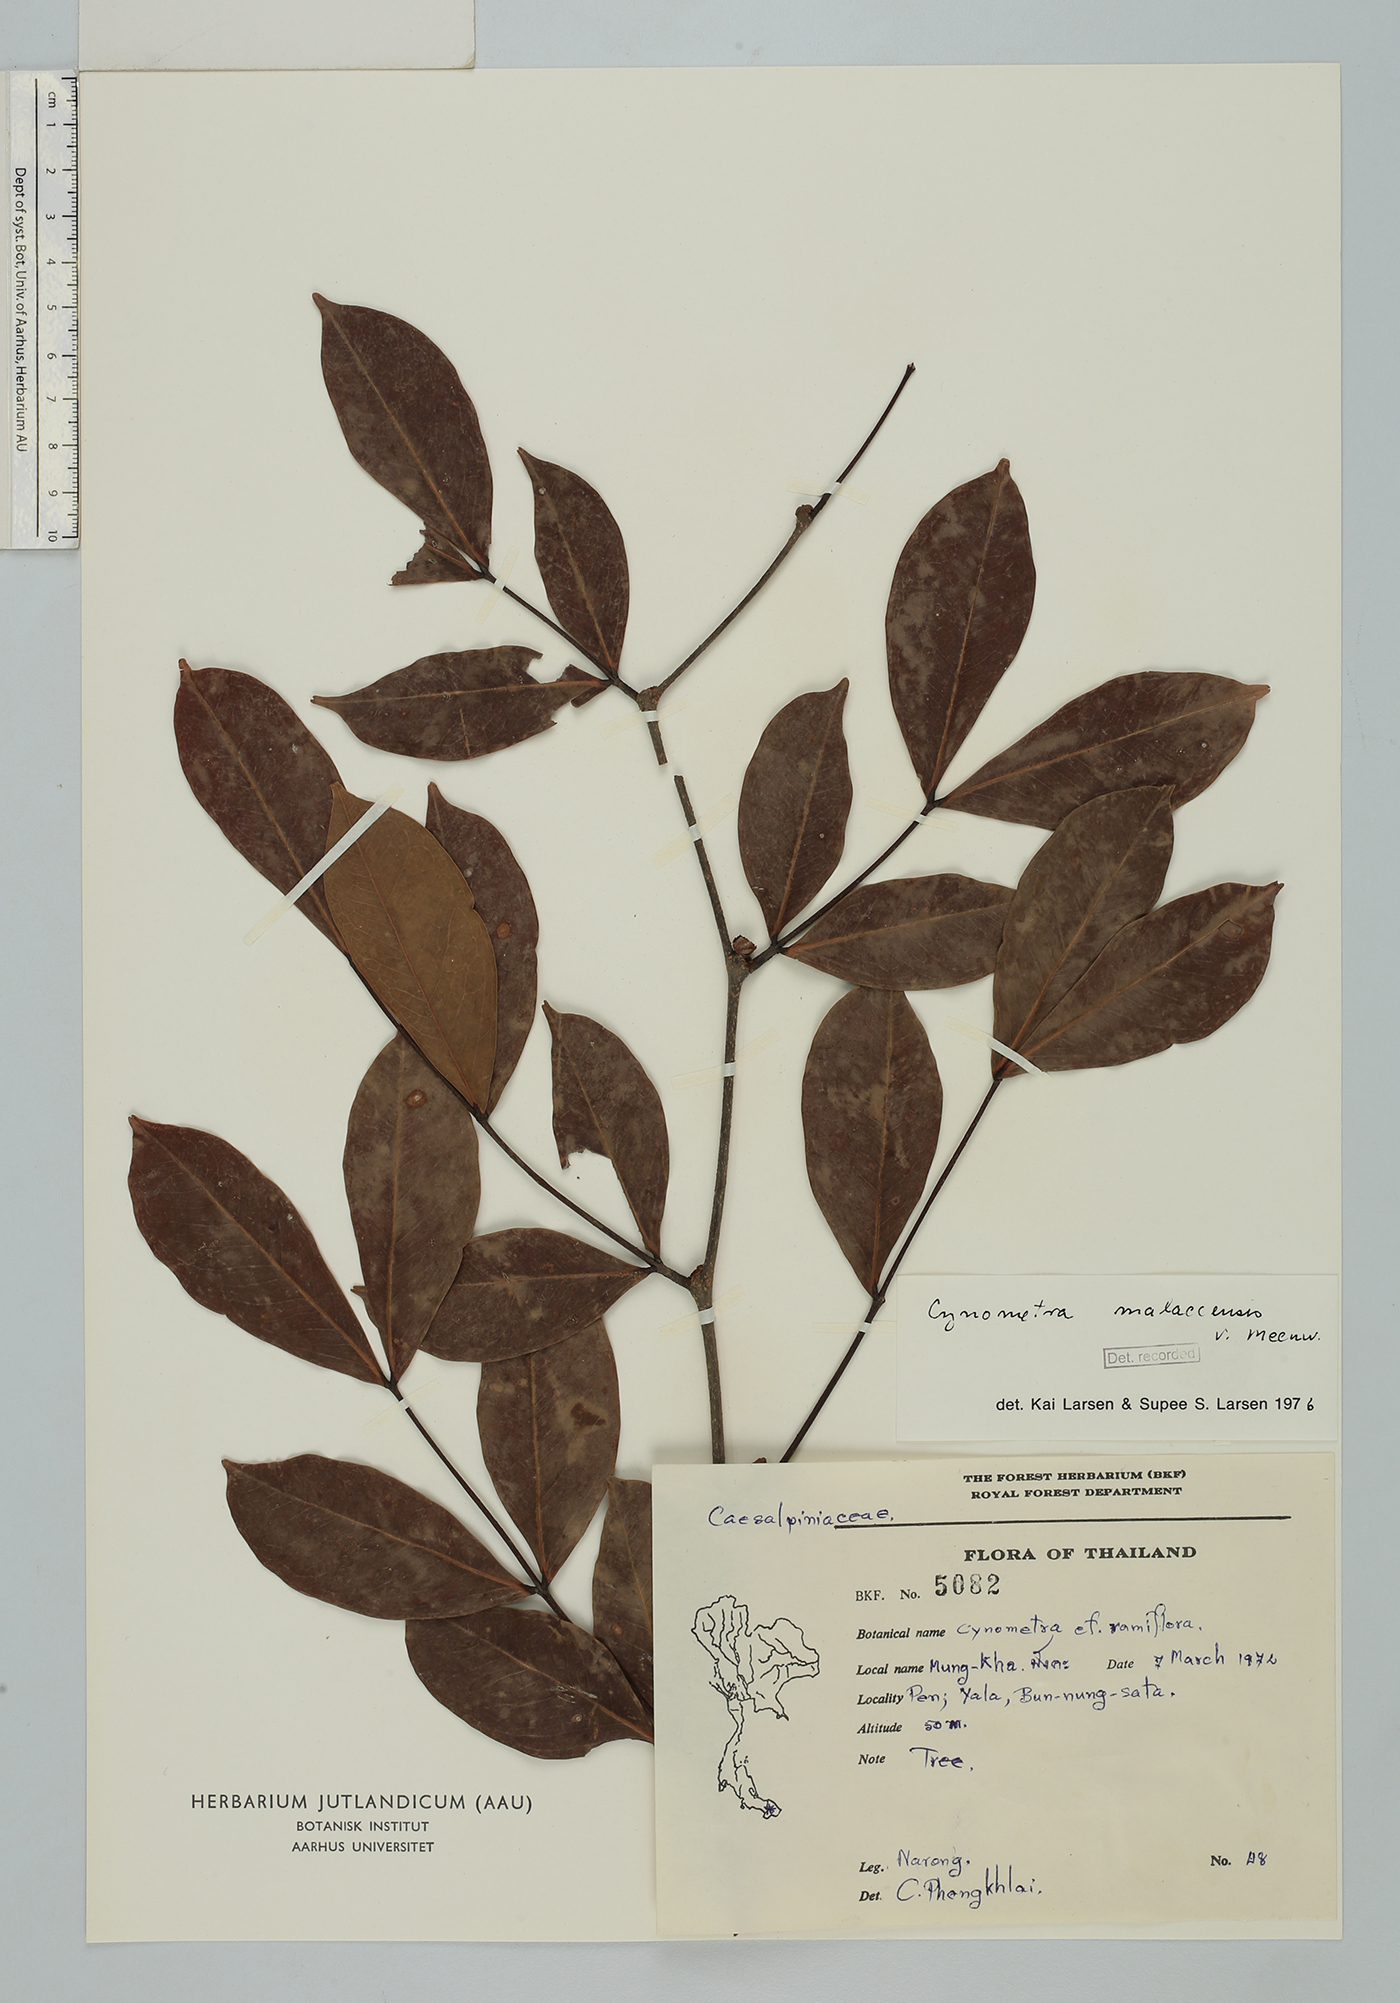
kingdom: Plantae
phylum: Tracheophyta
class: Magnoliopsida
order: Fabales
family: Fabaceae
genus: Cynometra
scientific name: Cynometra malaccensis
